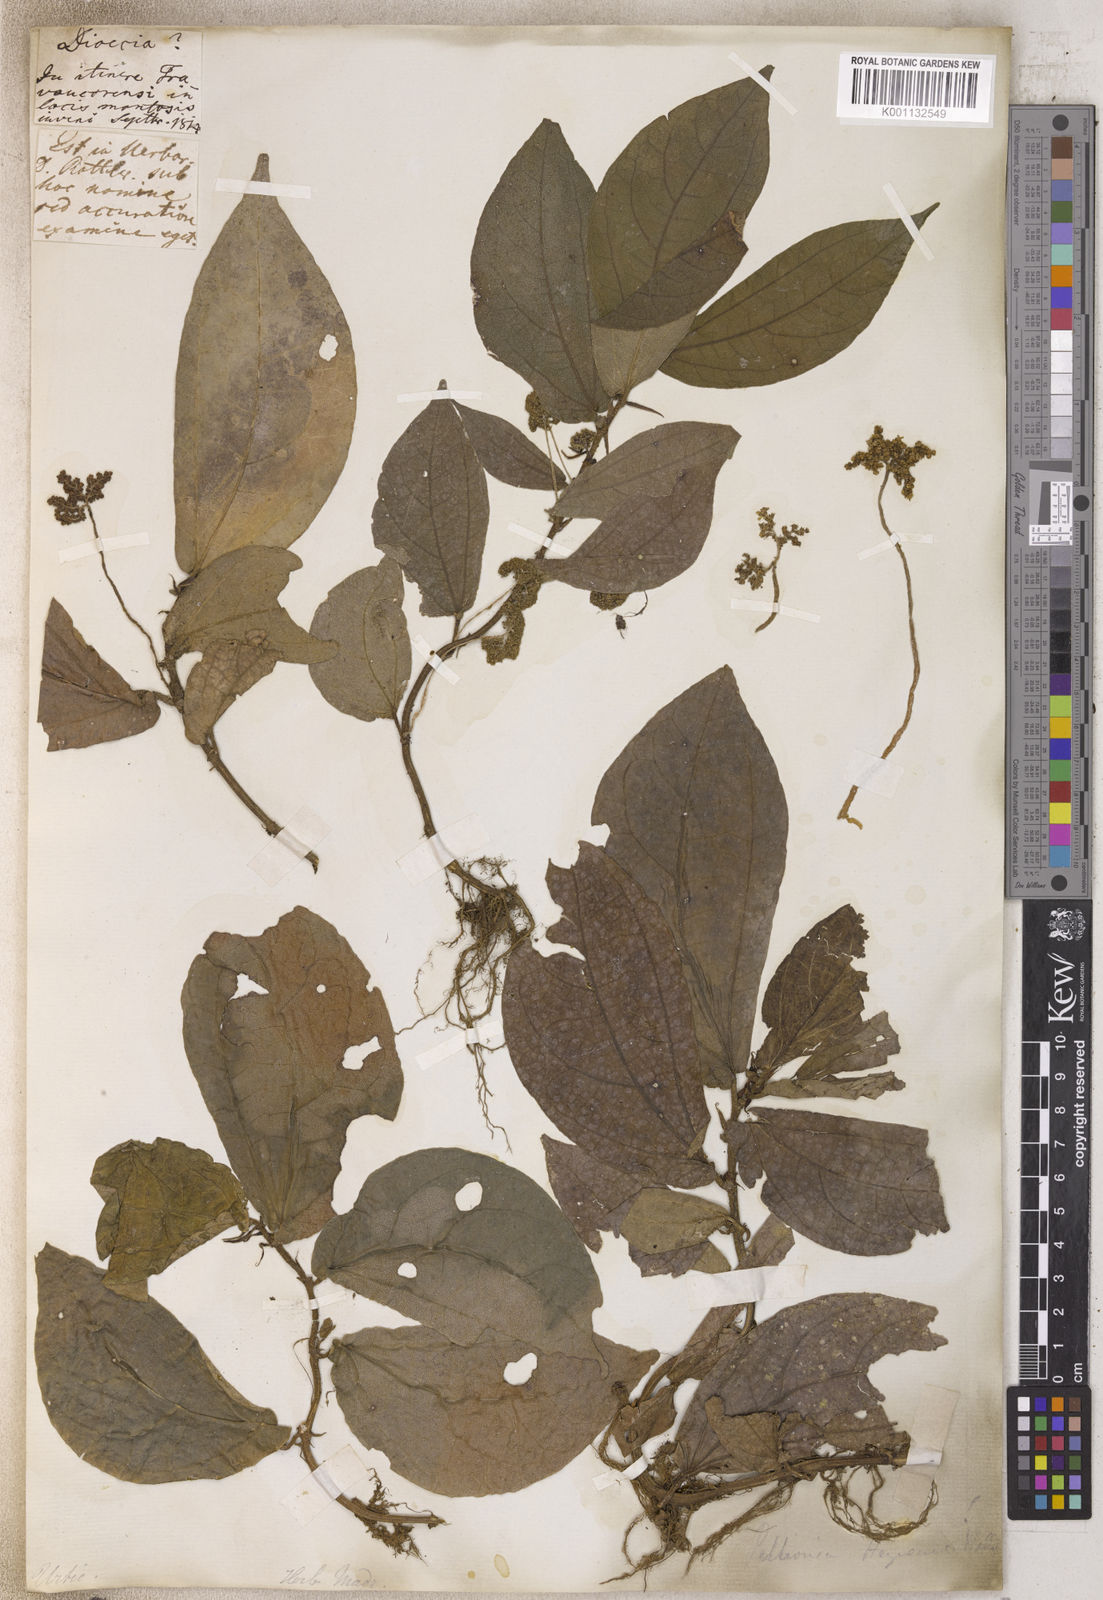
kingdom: Plantae
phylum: Tracheophyta
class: Magnoliopsida
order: Rosales
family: Urticaceae
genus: Pellionia
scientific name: Pellionia
